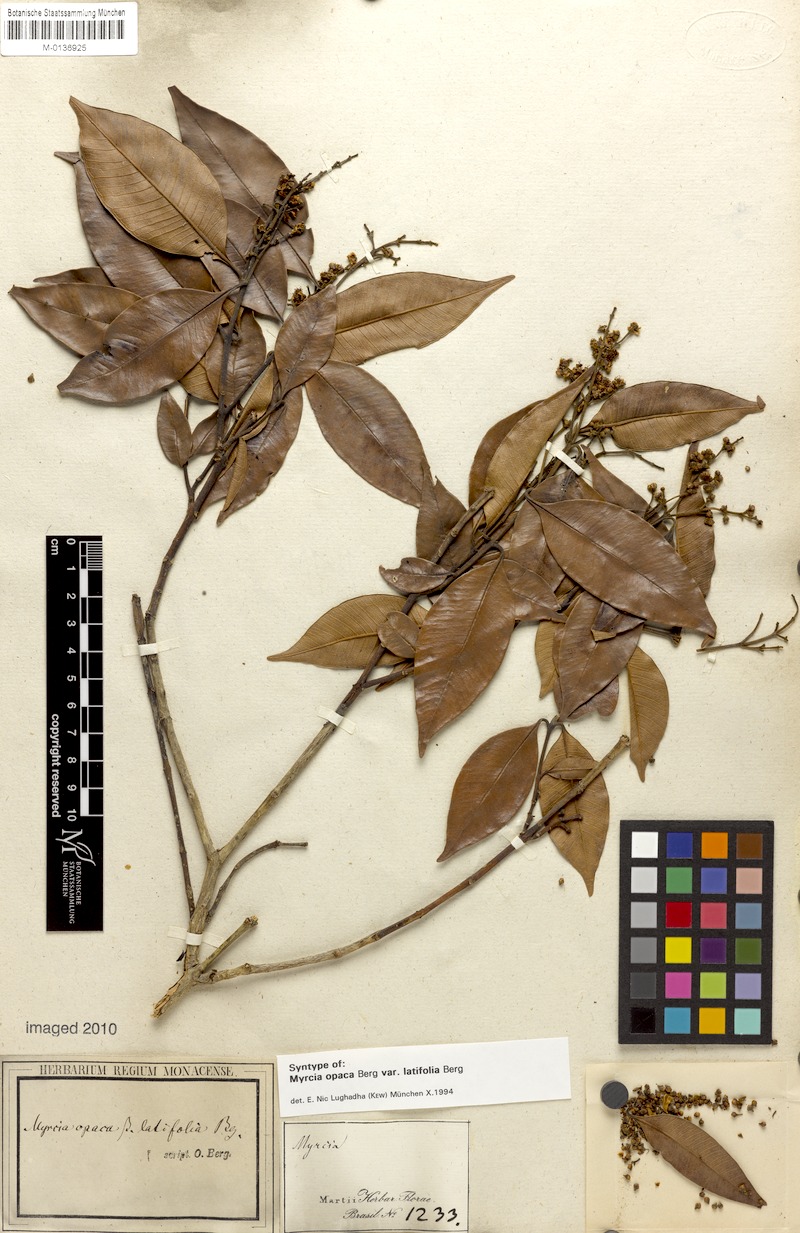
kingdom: Plantae
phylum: Tracheophyta
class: Magnoliopsida
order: Myrtales
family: Myrtaceae
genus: Myrcia
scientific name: Myrcia splendens
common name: Surinam cherry
